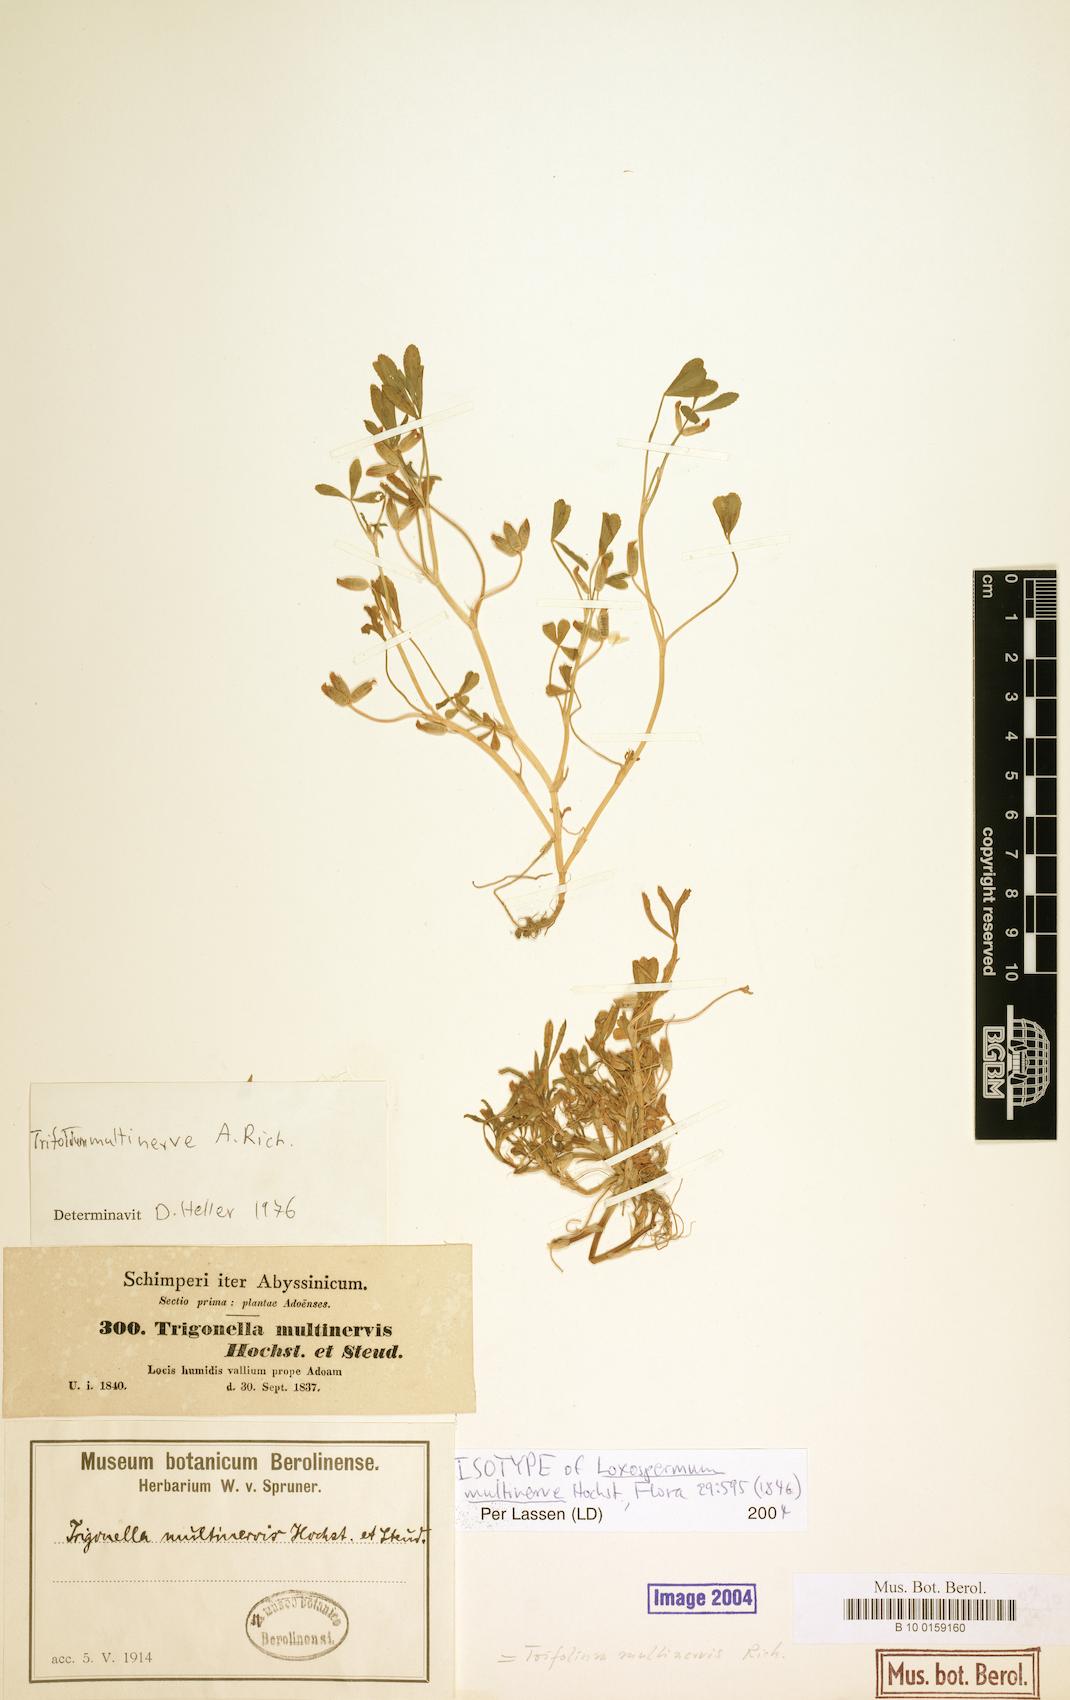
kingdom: Plantae
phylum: Tracheophyta
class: Magnoliopsida
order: Fabales
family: Fabaceae
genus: Trifolium
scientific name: Trifolium multinerve
